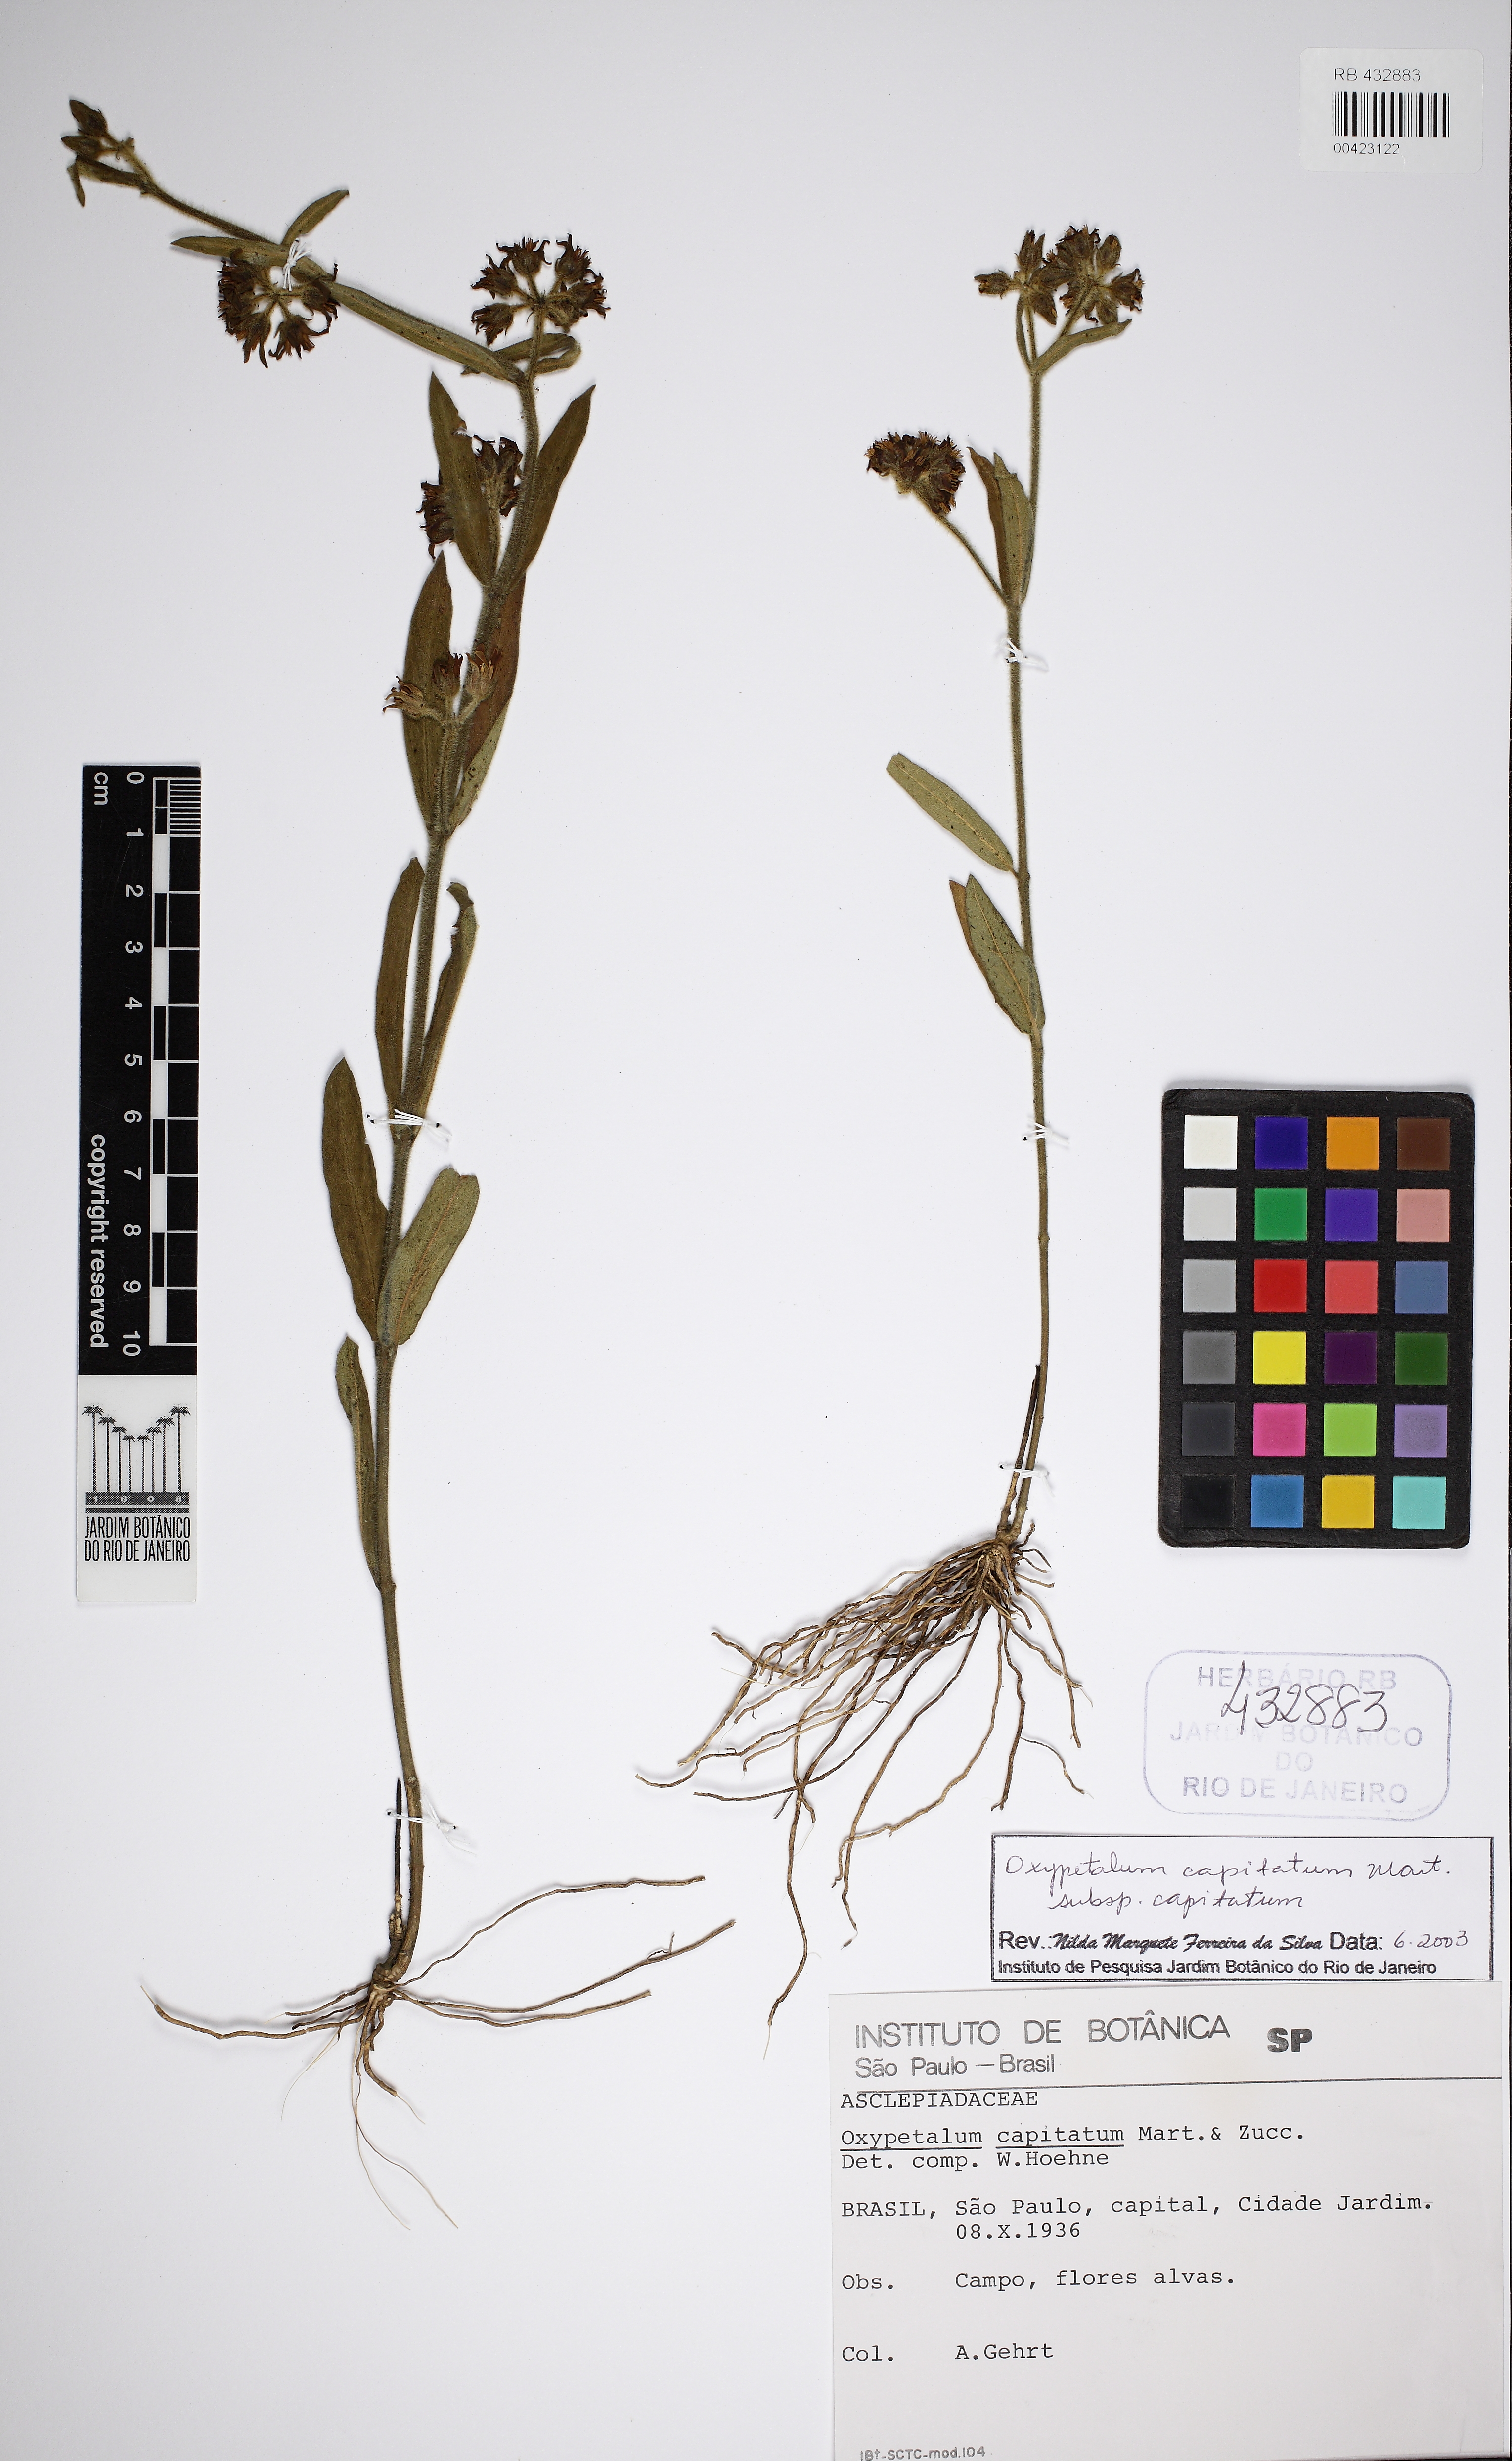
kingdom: Plantae
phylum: Tracheophyta
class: Magnoliopsida
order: Gentianales
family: Apocynaceae
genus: Oxypetalum
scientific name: Oxypetalum capitatum
